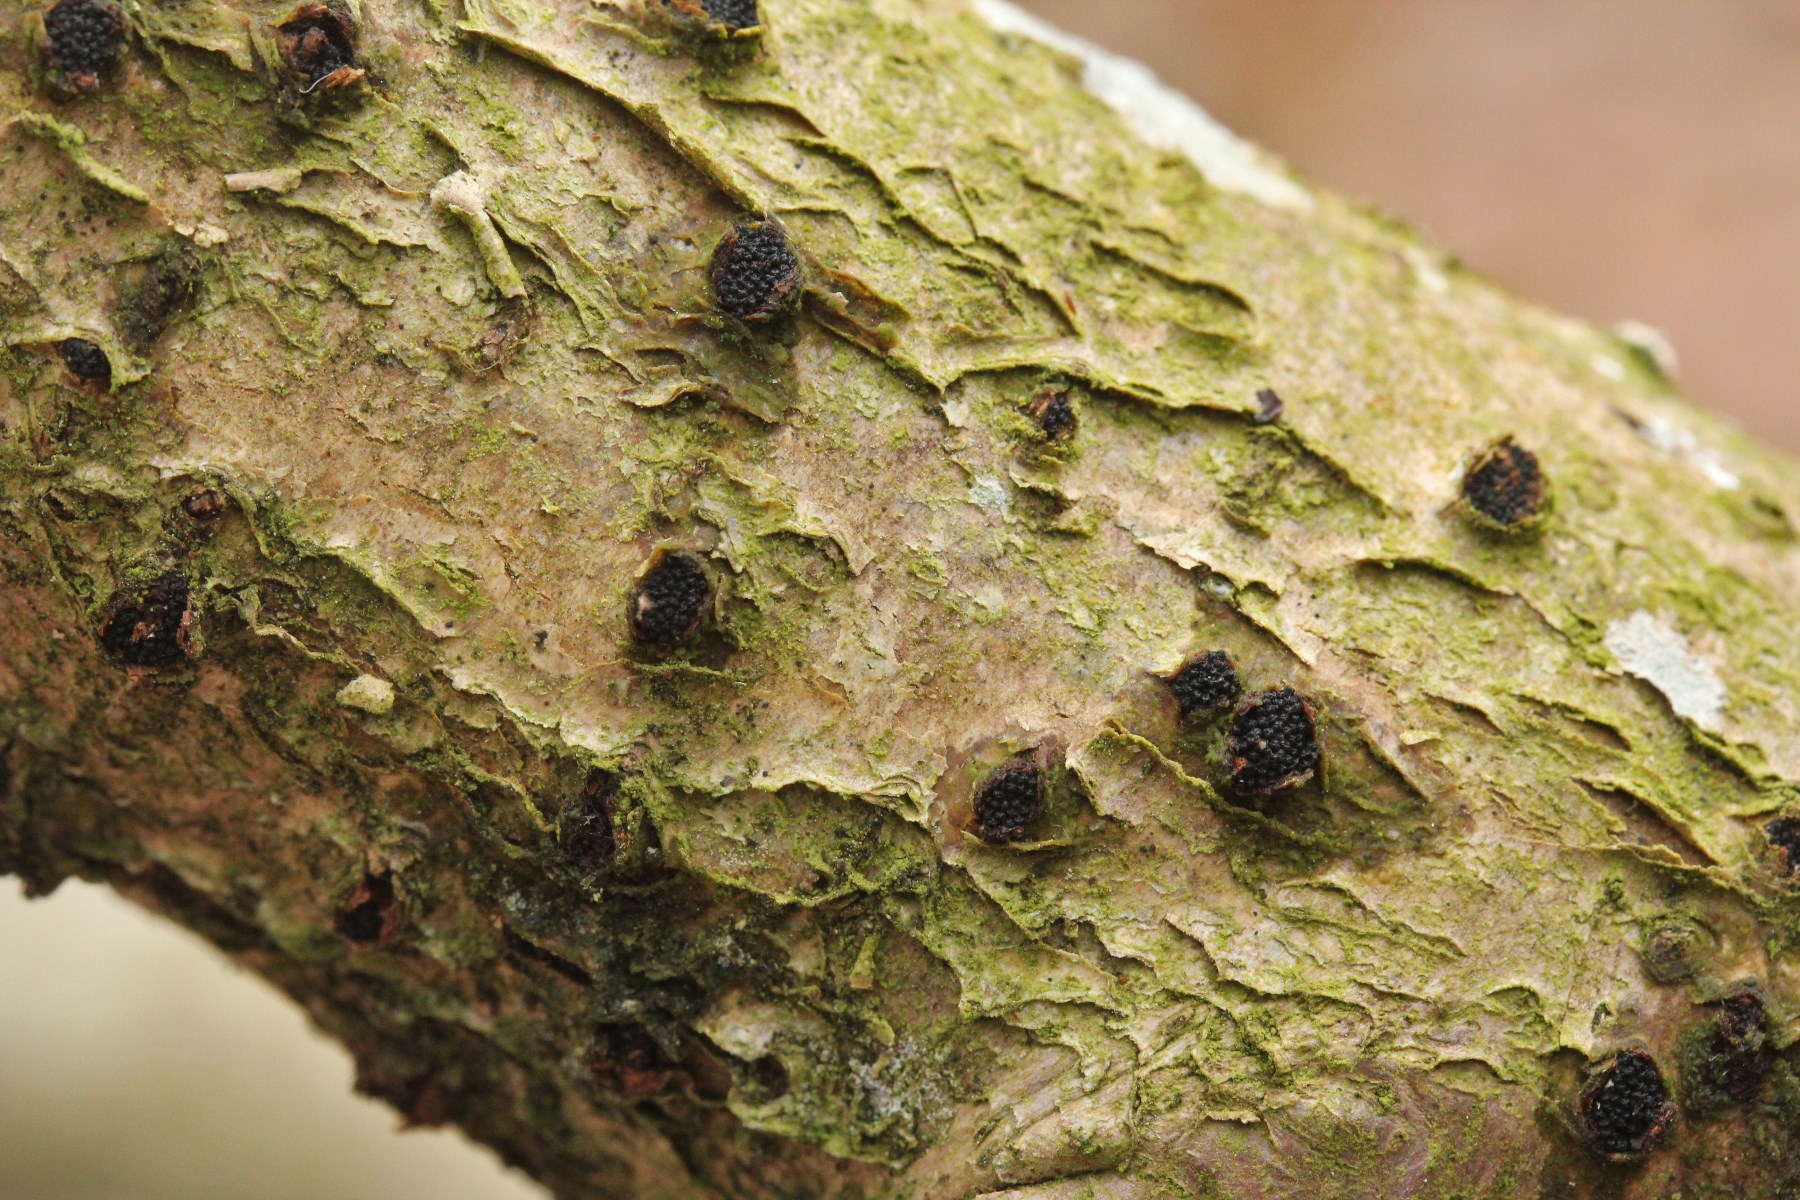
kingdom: Fungi
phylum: Ascomycota
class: Sordariomycetes
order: Xylariales
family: Diatrypaceae
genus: Eutypella
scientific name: Eutypella sorbi
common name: rønne-kulskorpe
